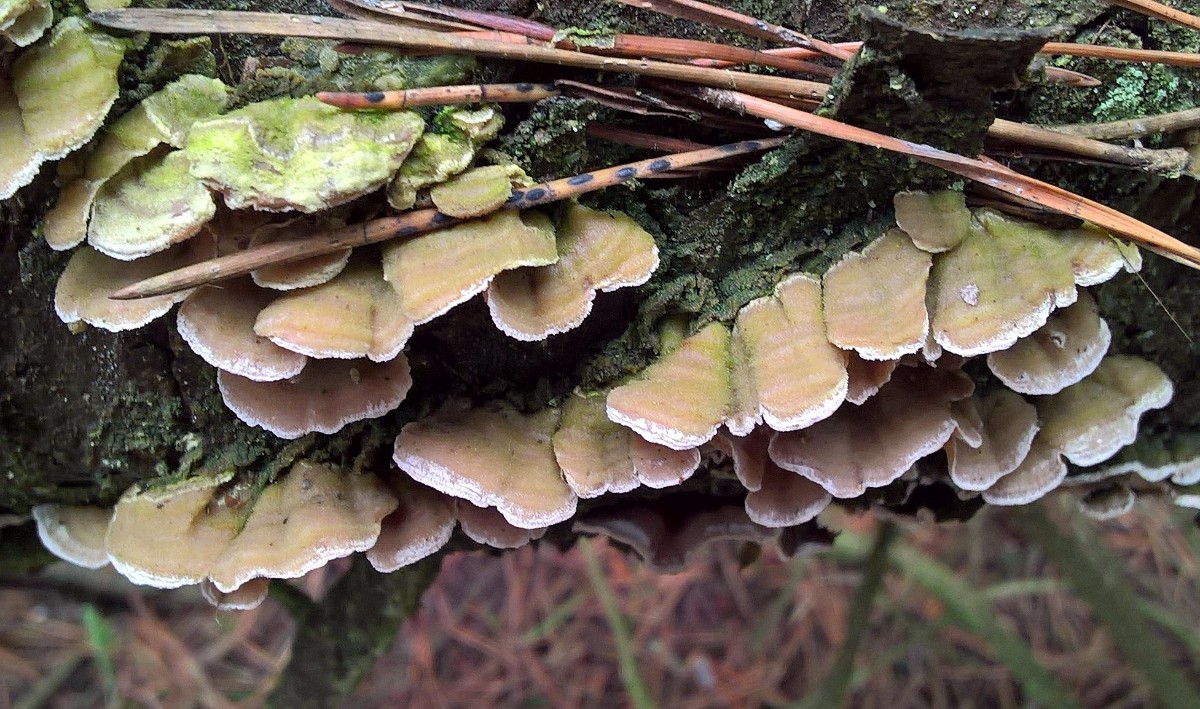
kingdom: Fungi
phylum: Basidiomycota
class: Agaricomycetes
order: Polyporales
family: Incrustoporiaceae
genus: Skeletocutis
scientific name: Skeletocutis carneogrisea
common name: rødgrå krystalporesvamp
